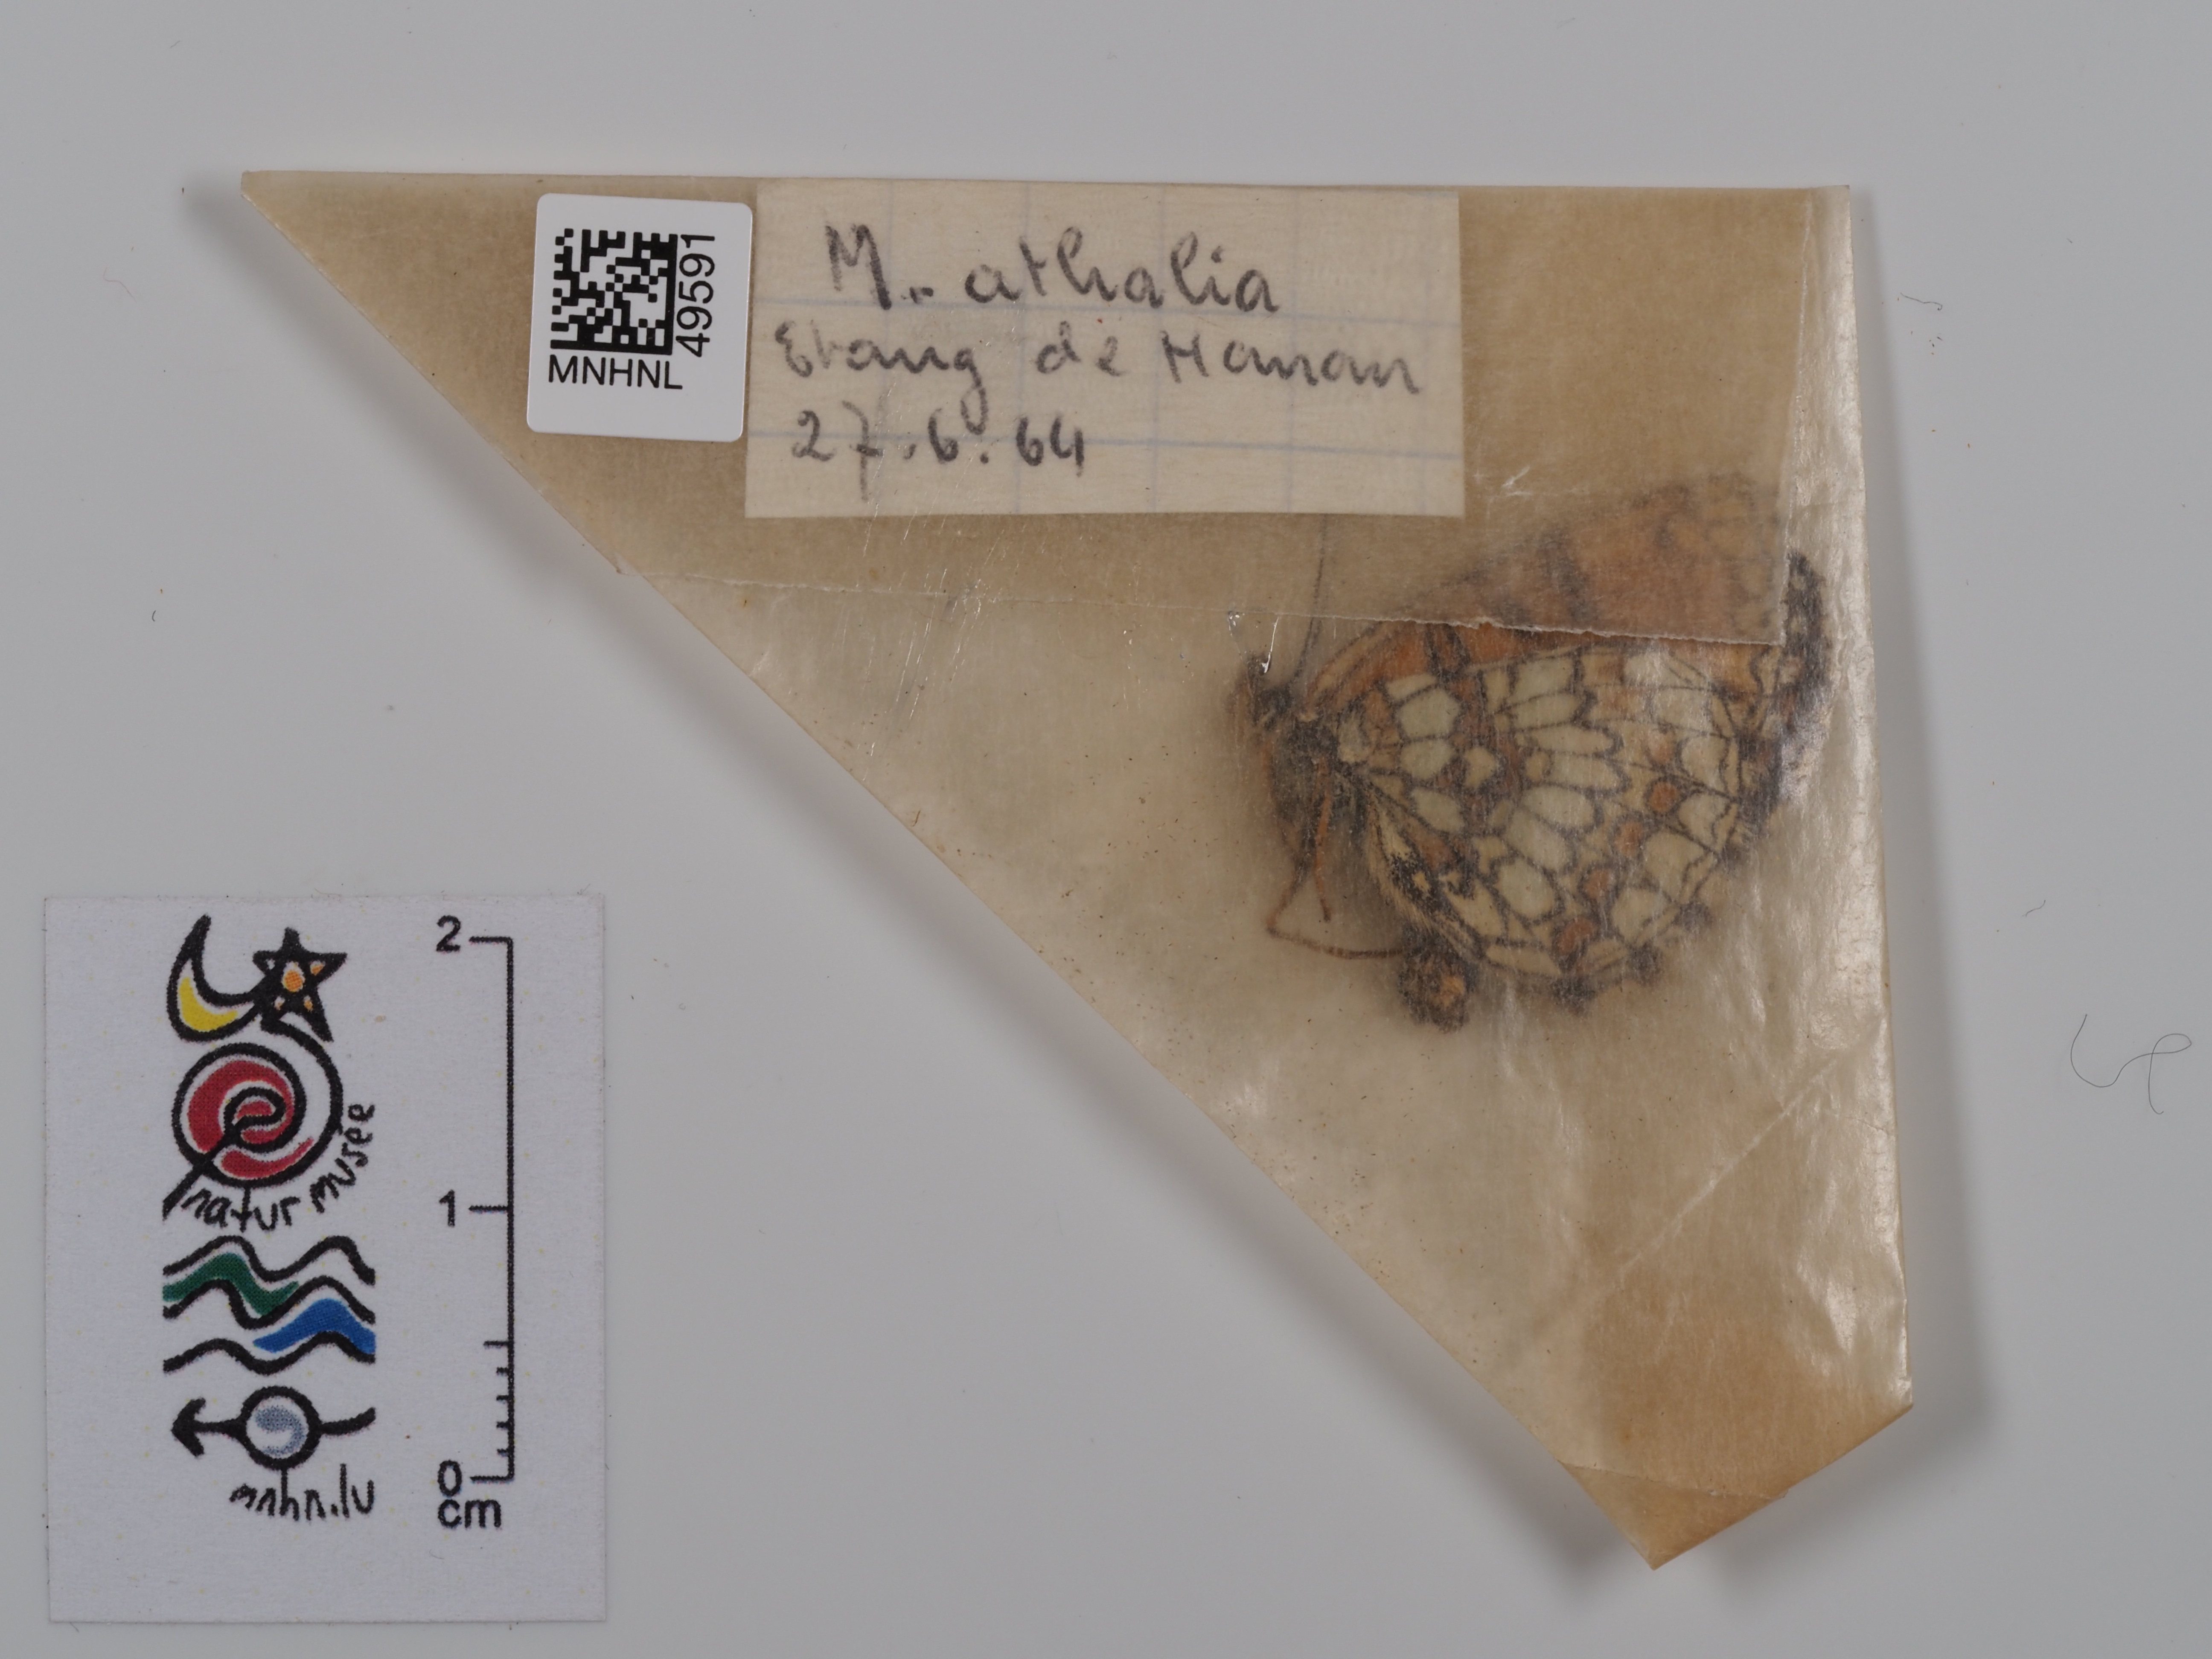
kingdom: Animalia
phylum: Arthropoda
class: Insecta
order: Lepidoptera
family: Nymphalidae
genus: Mellicta
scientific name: Mellicta athalia
